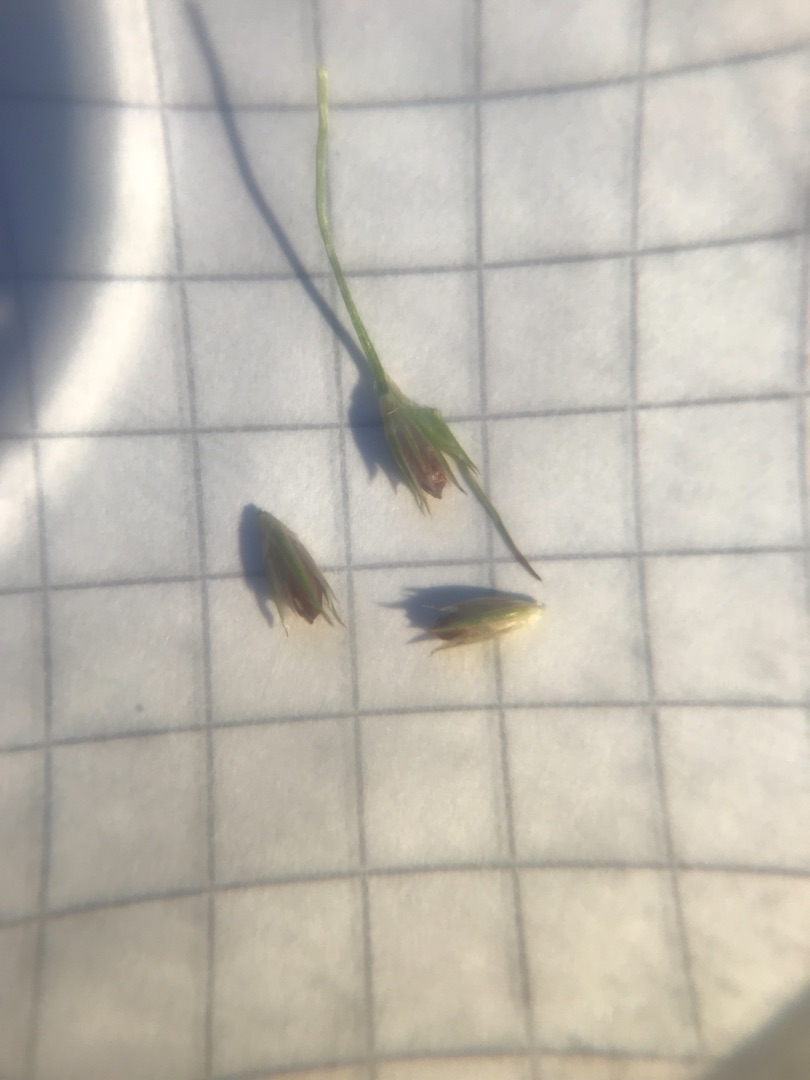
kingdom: Plantae
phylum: Tracheophyta
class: Liliopsida
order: Poales
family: Juncaceae
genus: Juncus
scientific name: Juncus bufonius
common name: Tudse-siv
